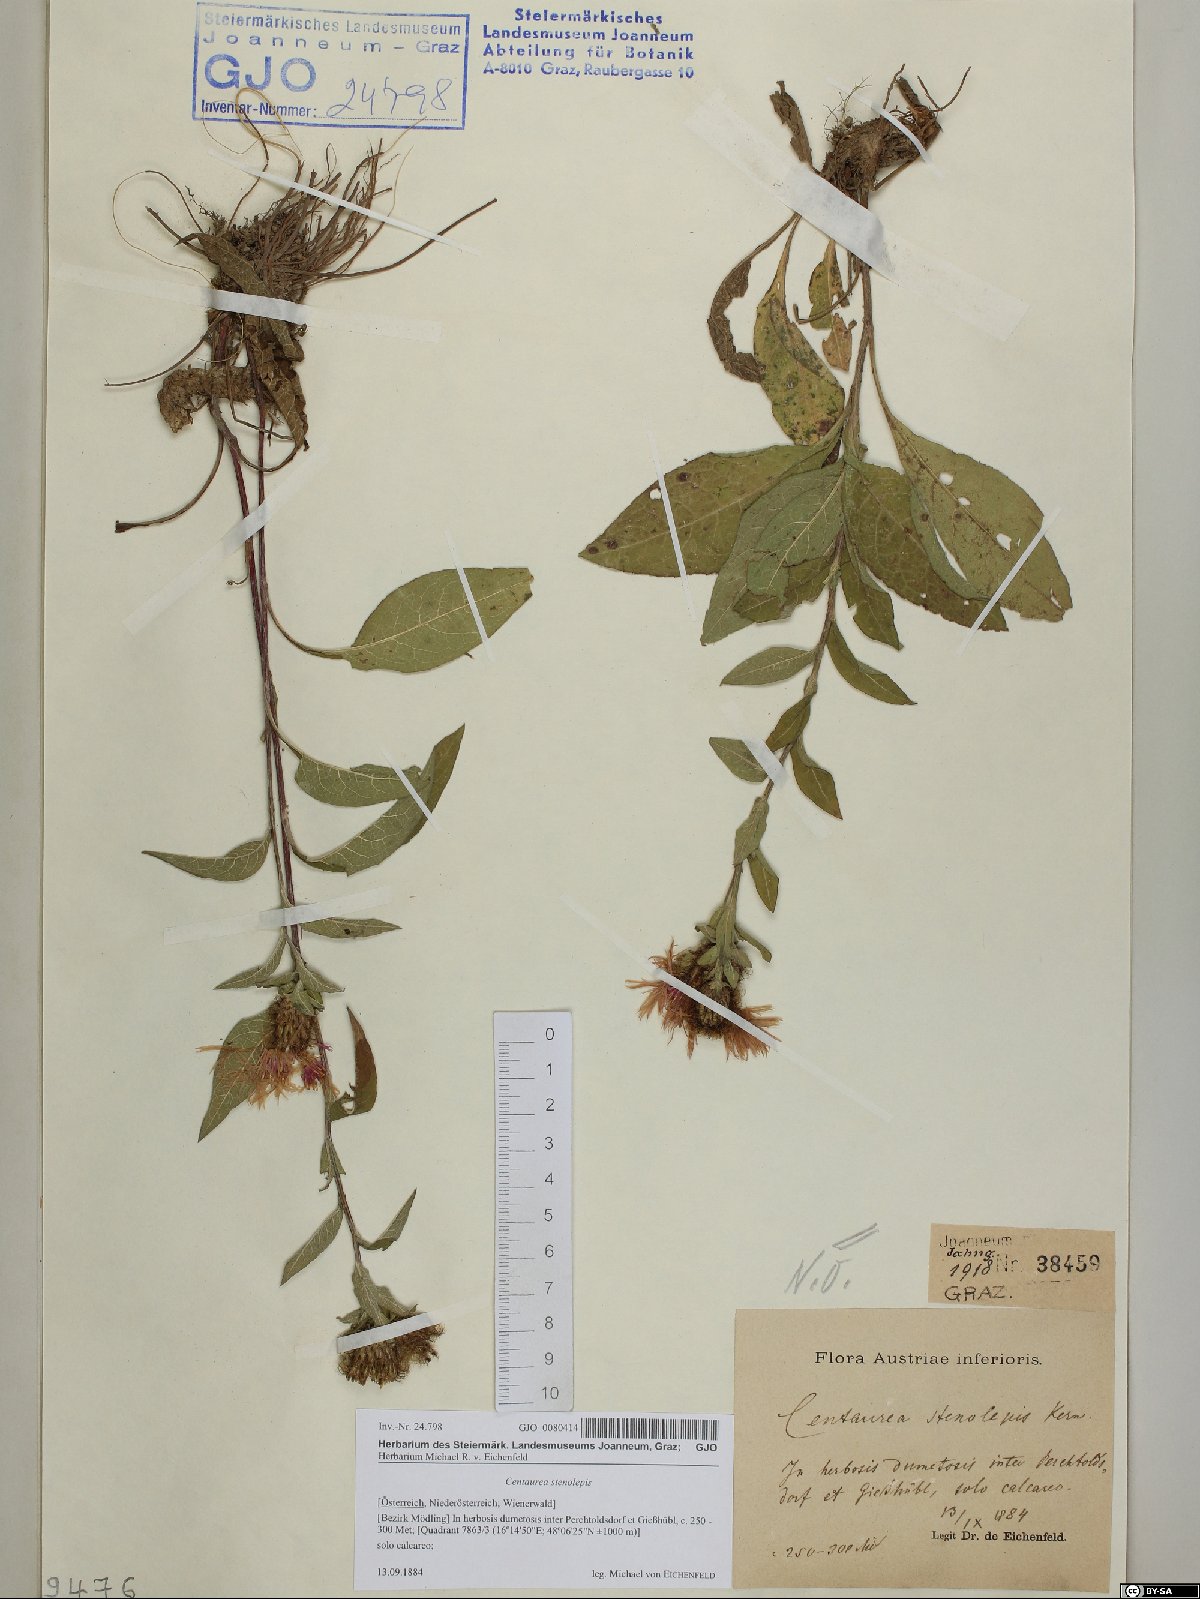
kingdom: Plantae
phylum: Tracheophyta
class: Magnoliopsida
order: Asterales
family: Asteraceae
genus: Centaurea
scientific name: Centaurea stenolepis
